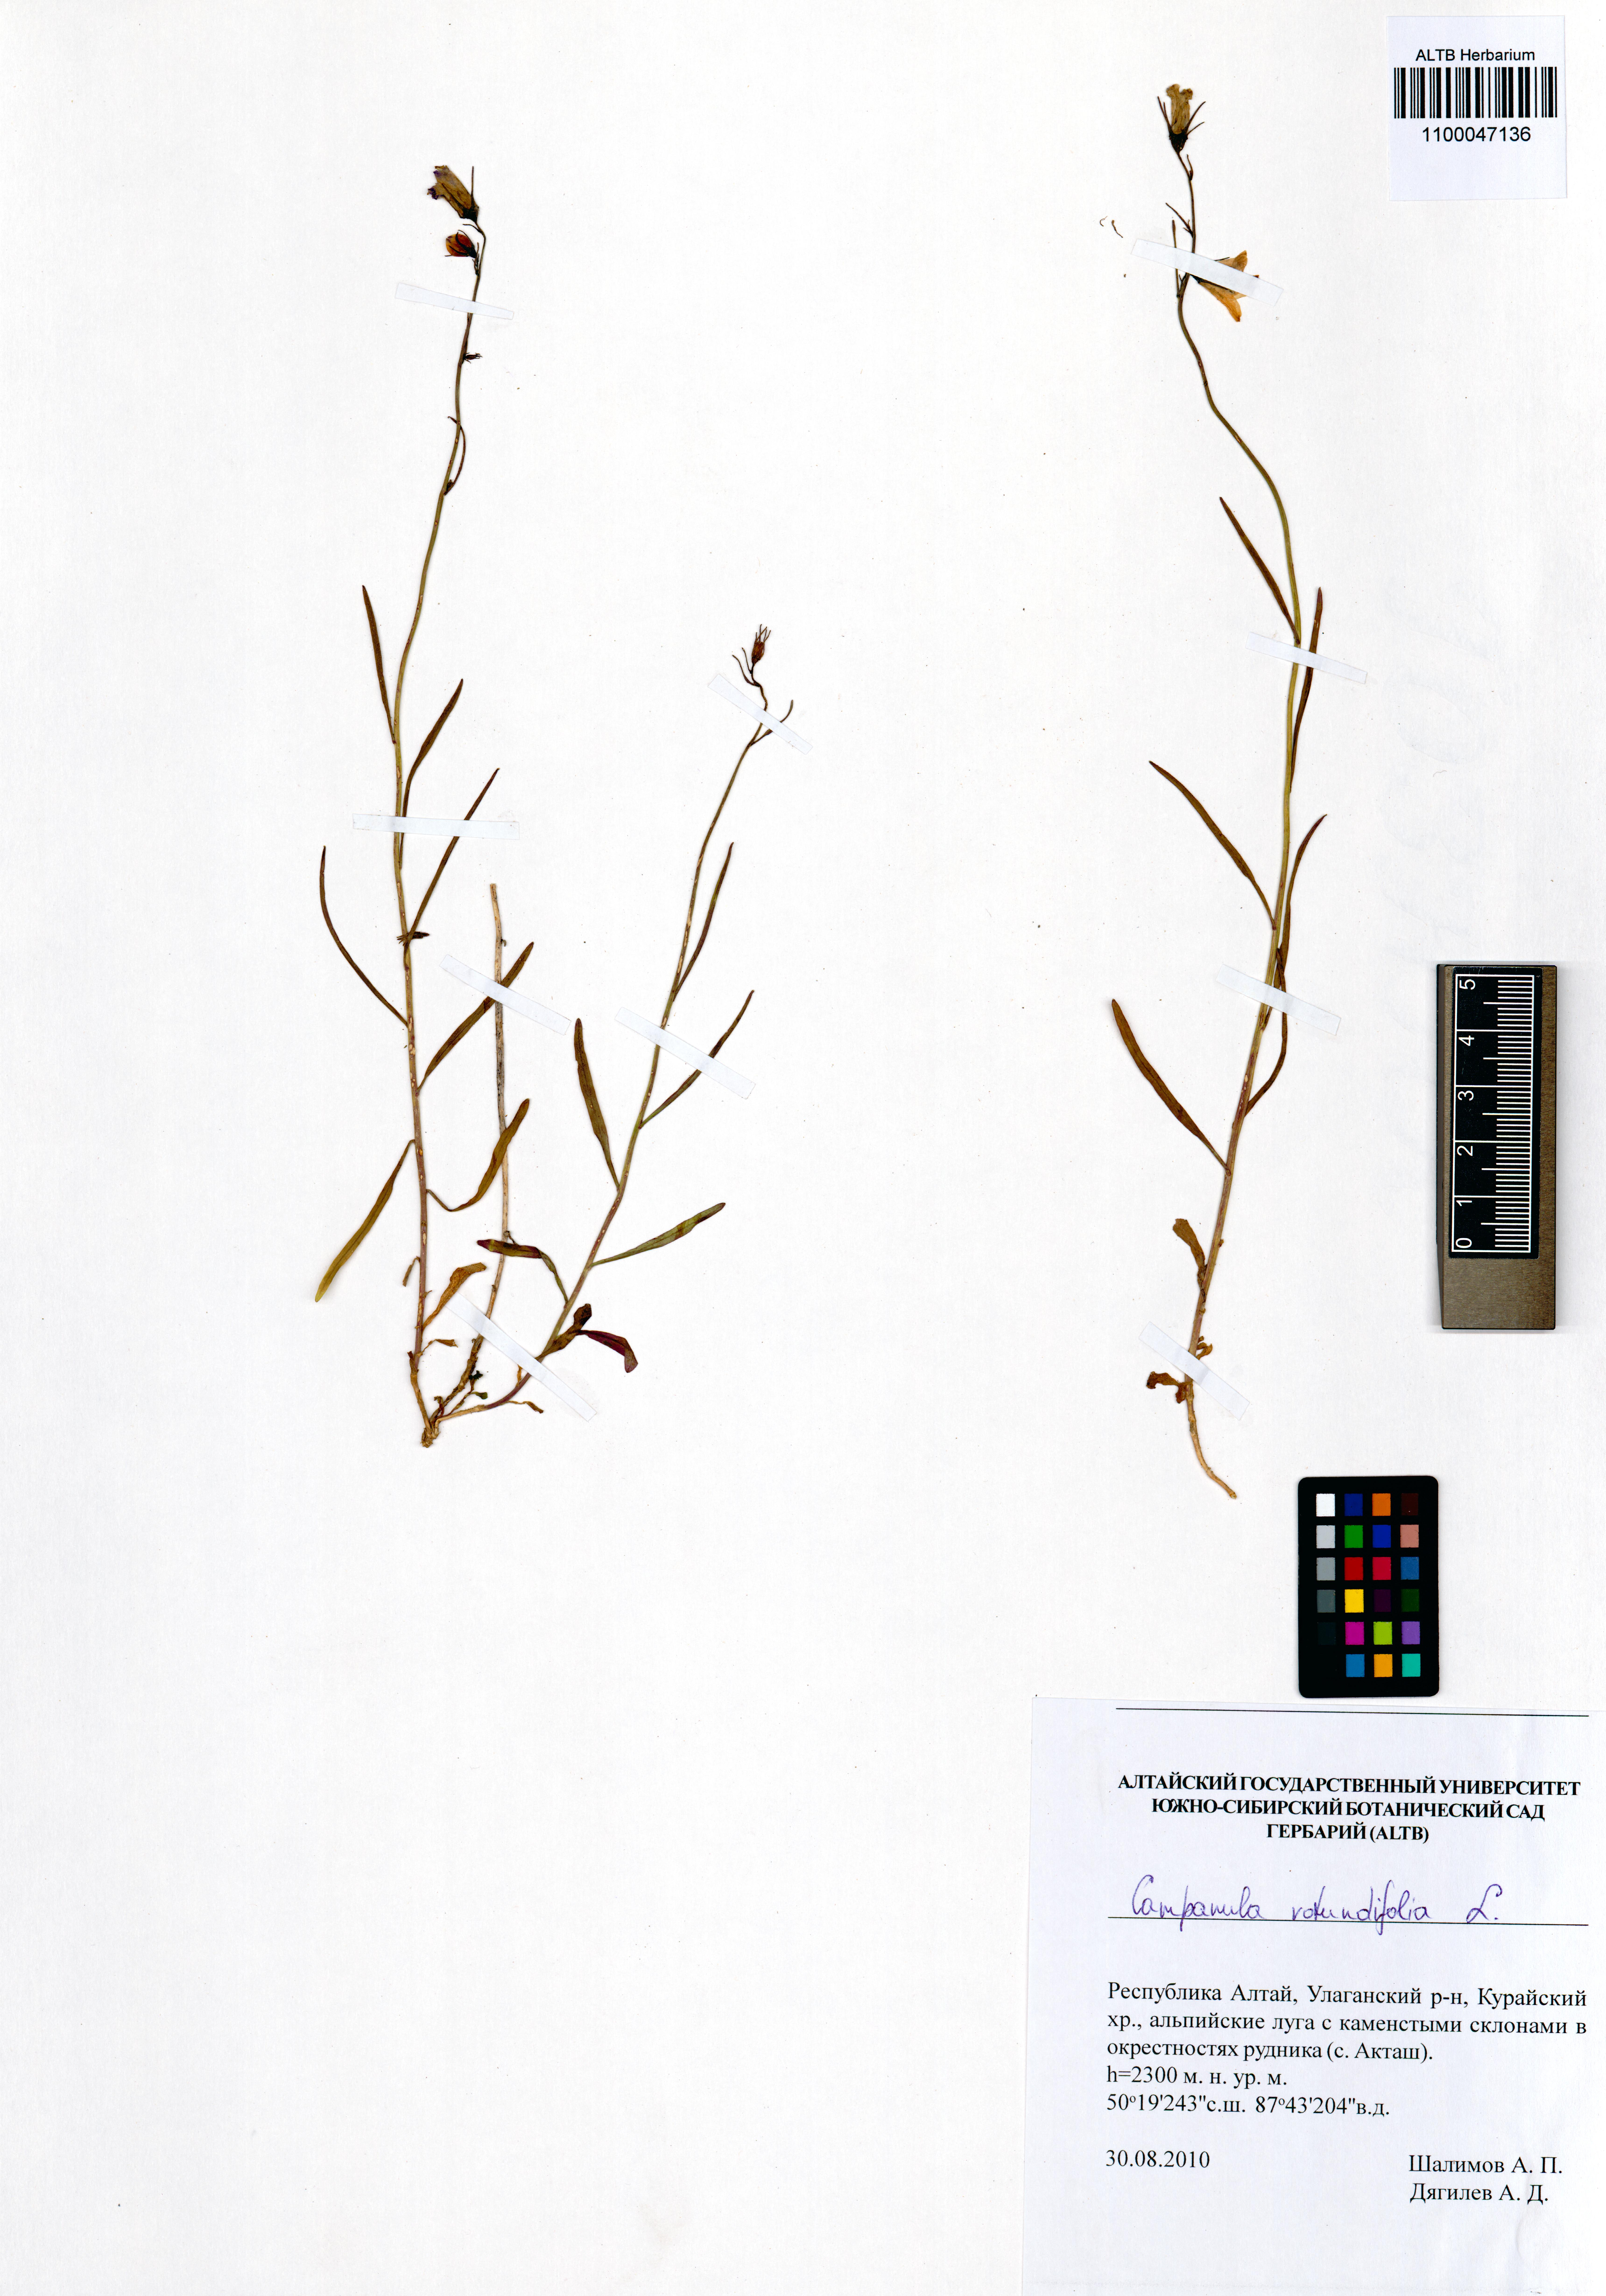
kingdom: Plantae
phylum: Tracheophyta
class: Magnoliopsida
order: Asterales
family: Campanulaceae
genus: Campanula
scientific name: Campanula rotundifolia
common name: Harebell
